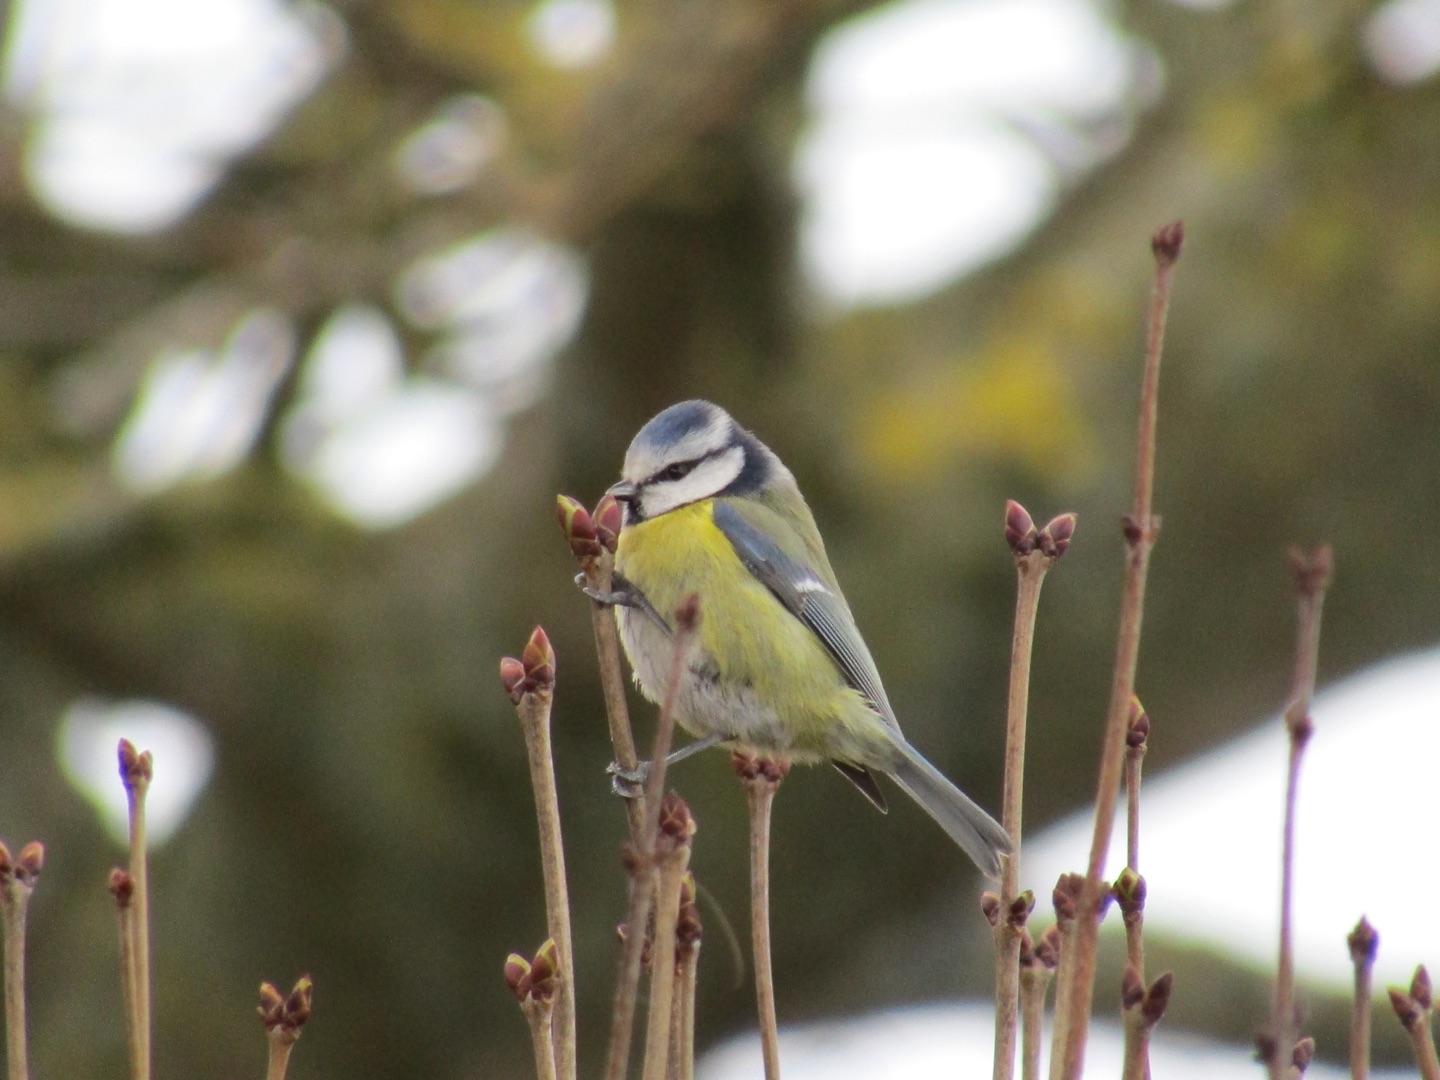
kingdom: Animalia
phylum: Chordata
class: Aves
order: Passeriformes
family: Paridae
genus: Cyanistes
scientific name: Cyanistes caeruleus
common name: Blåmejse
